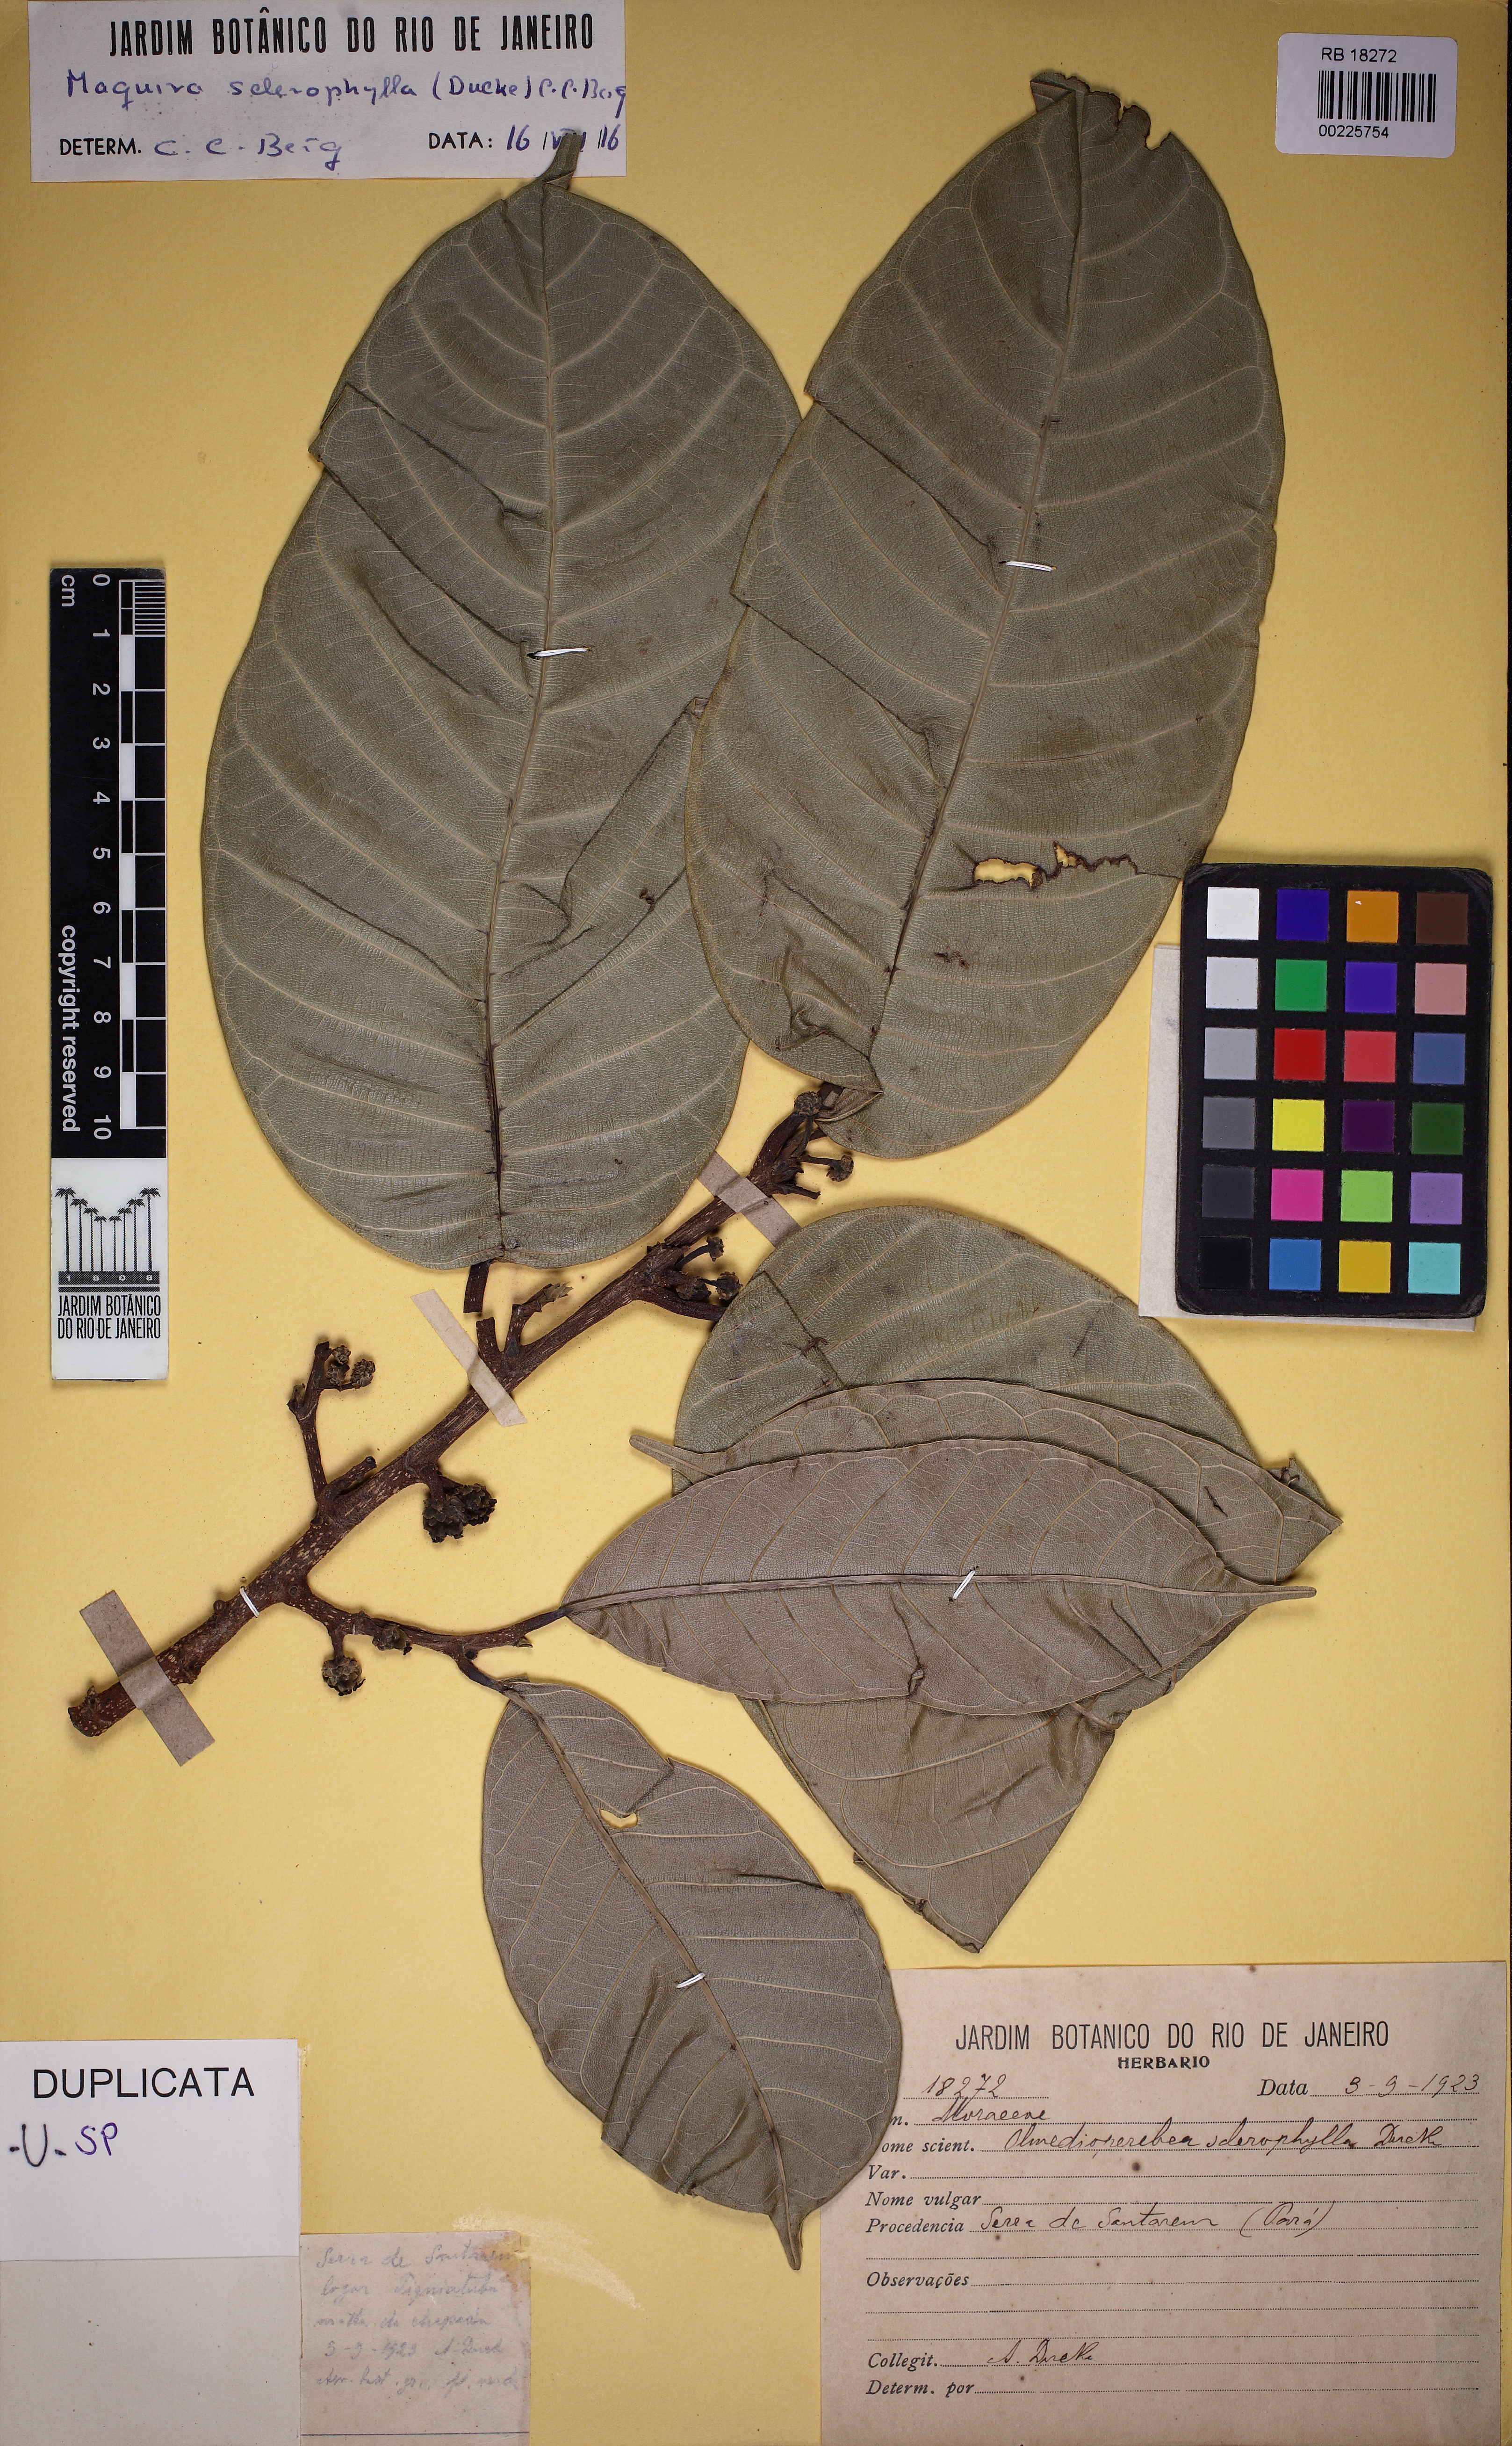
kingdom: Plantae
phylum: Tracheophyta
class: Magnoliopsida
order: Rosales
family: Moraceae
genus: Maquira
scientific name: Maquira sclerophylla
